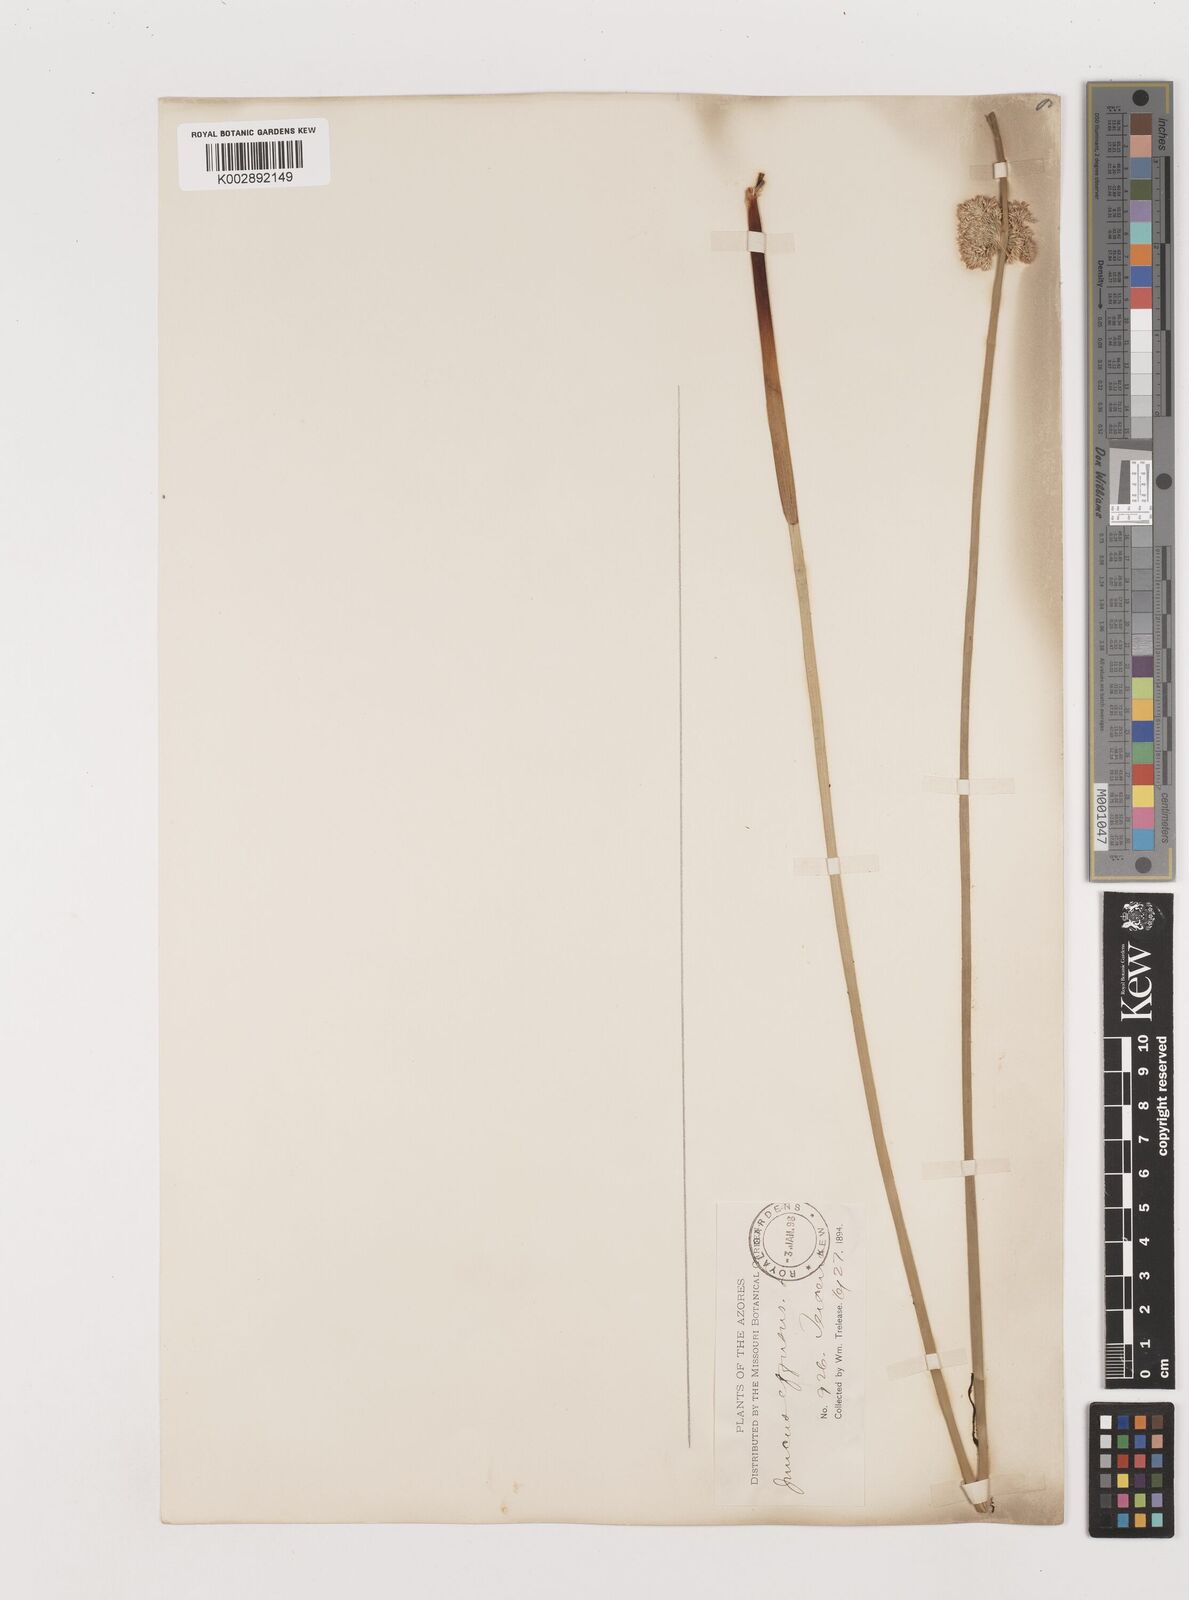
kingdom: Plantae
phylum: Tracheophyta
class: Liliopsida
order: Poales
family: Juncaceae
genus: Juncus
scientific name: Juncus effusus
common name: Soft rush
